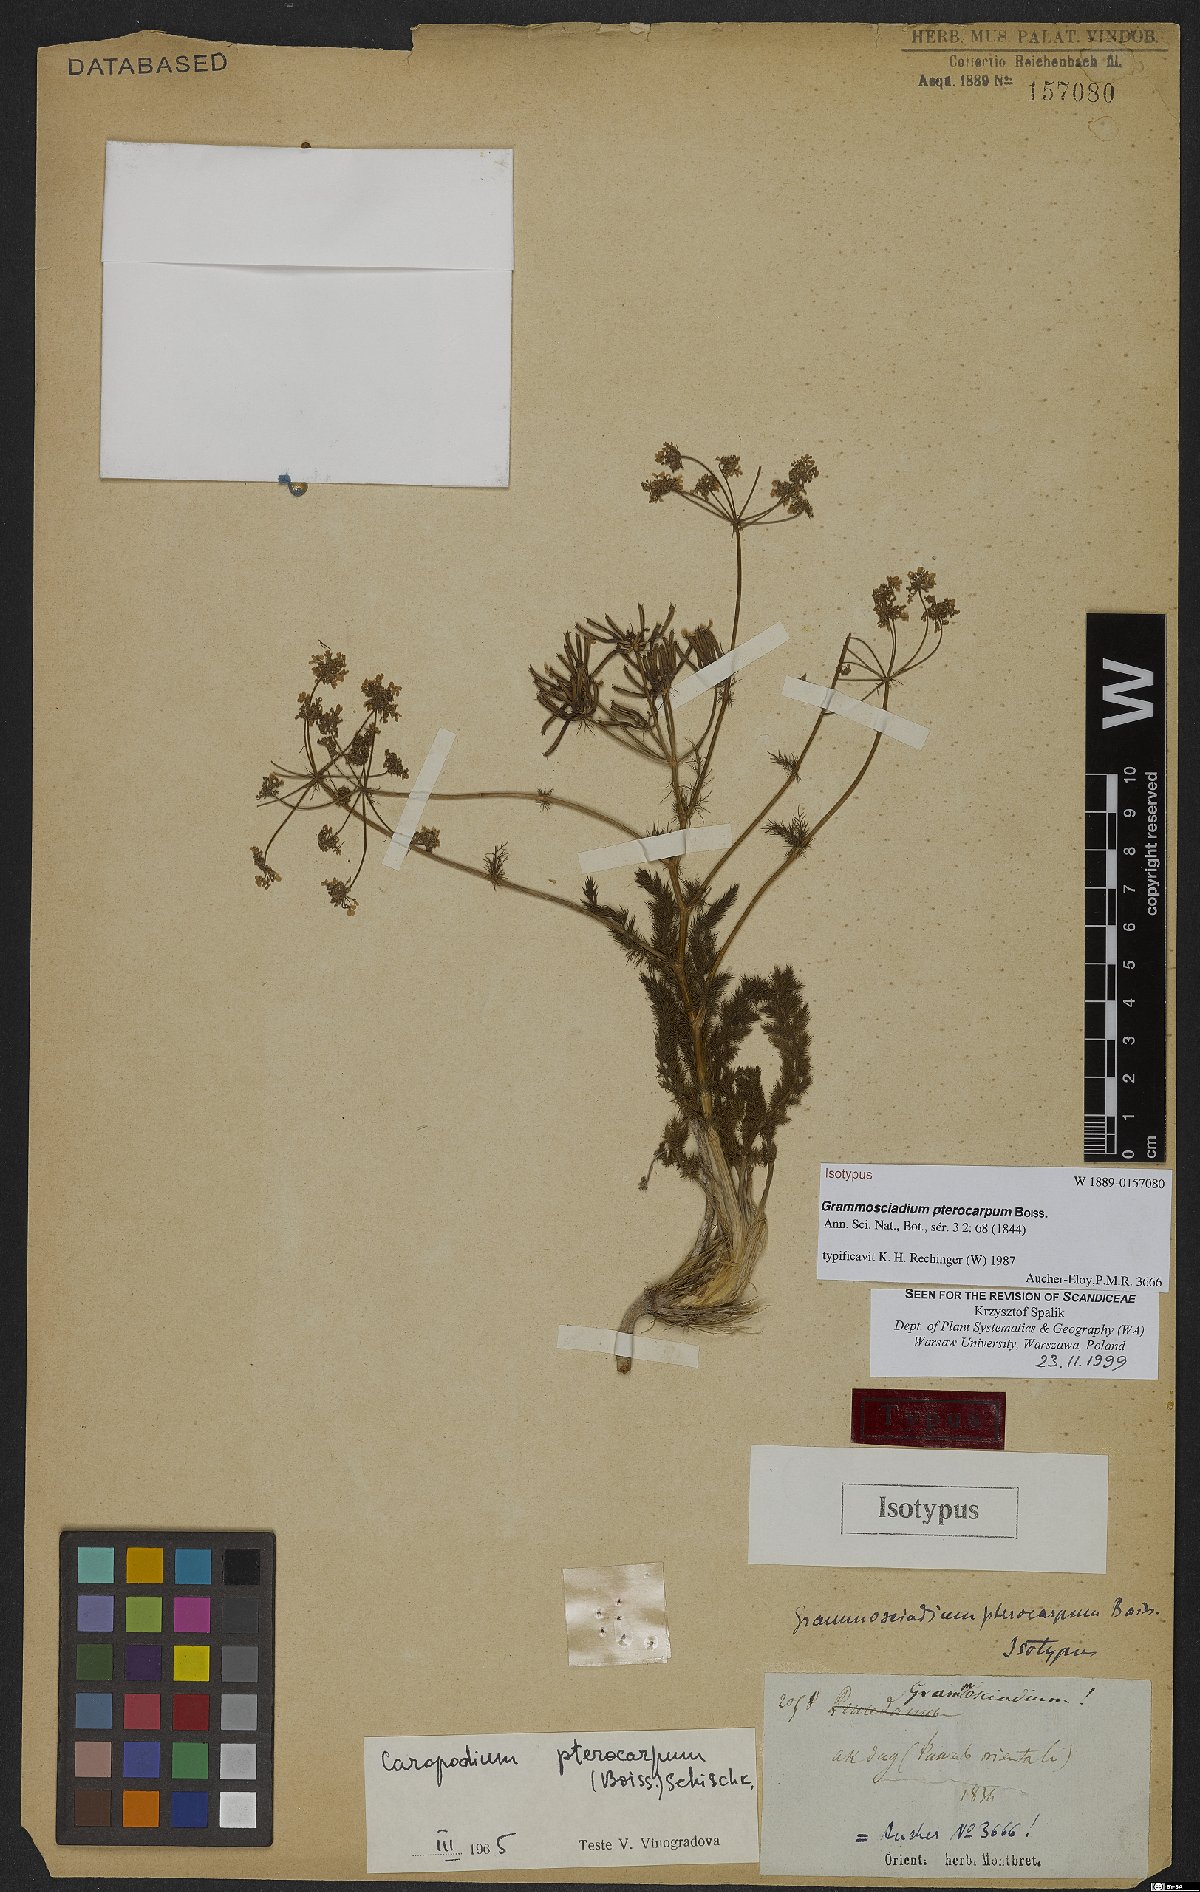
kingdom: Plantae
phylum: Tracheophyta
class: Magnoliopsida
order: Apiales
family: Apiaceae
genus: Caropodium
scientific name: Caropodium pterocarpum
